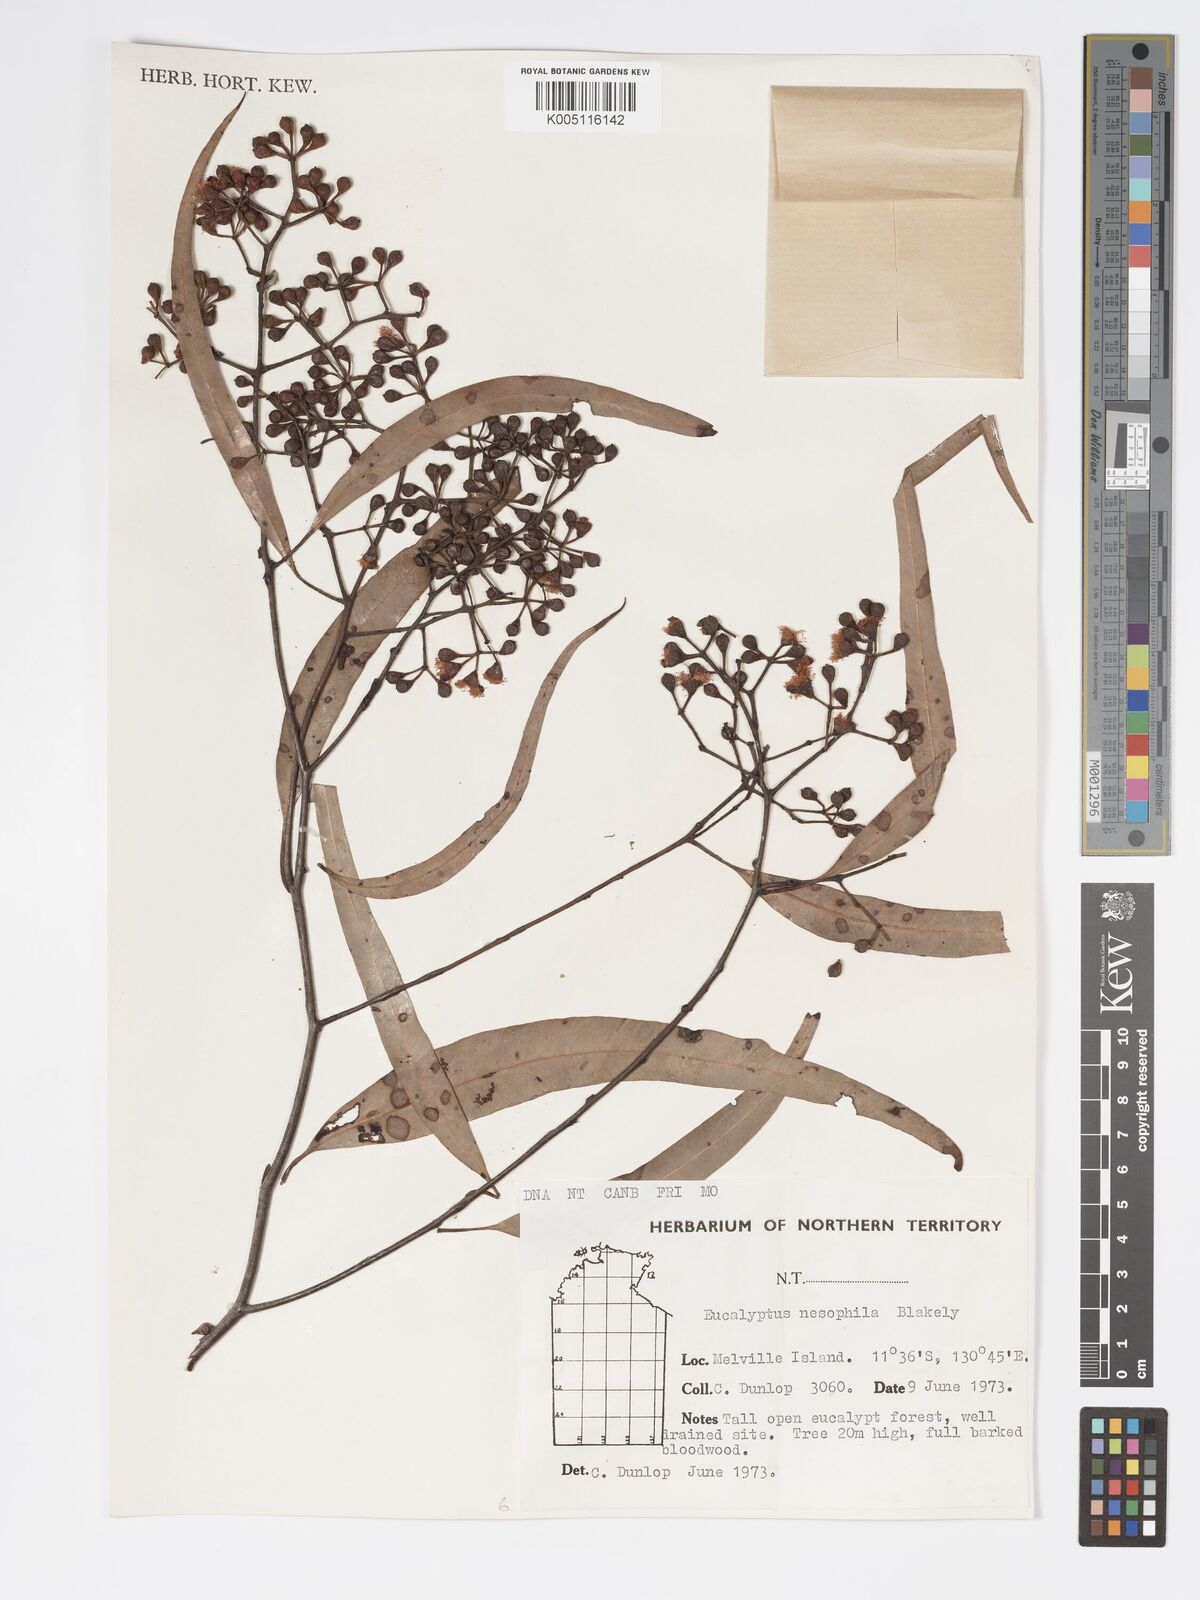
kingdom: Plantae
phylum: Tracheophyta
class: Magnoliopsida
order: Myrtales
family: Myrtaceae
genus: Corymbia
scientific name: Corymbia nesophila
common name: Melville-island-bloodwood
